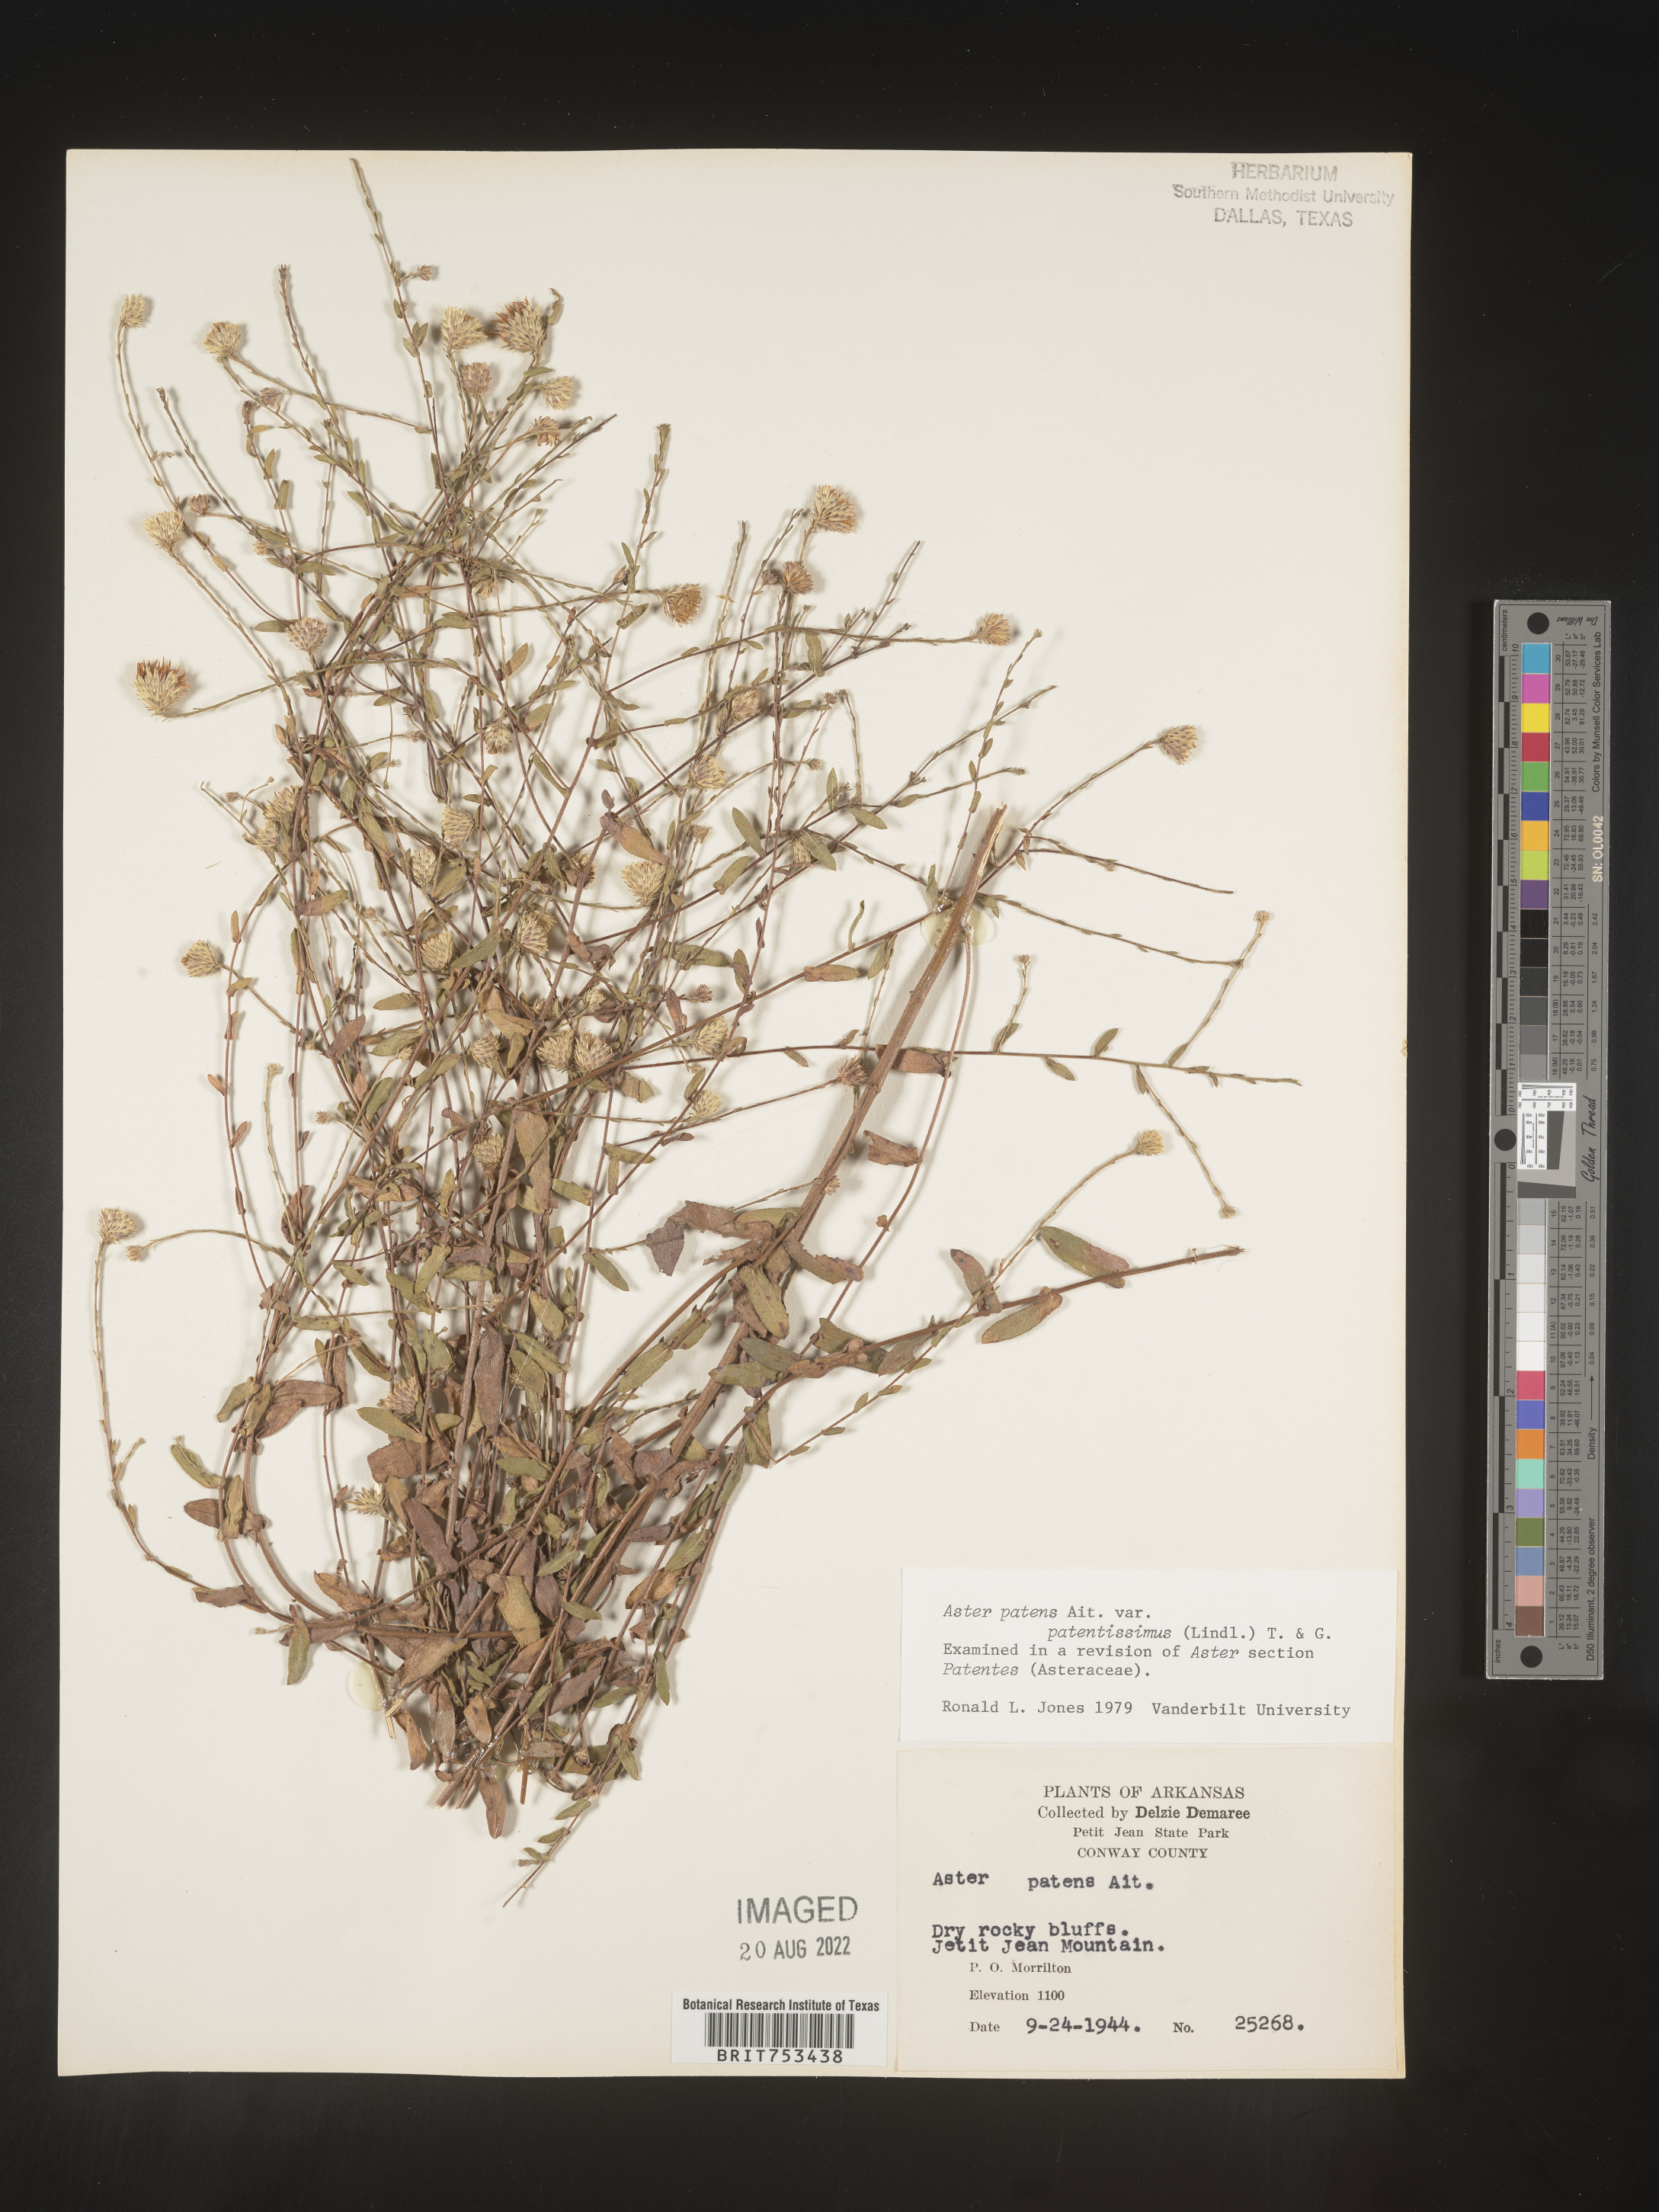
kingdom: Plantae
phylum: Tracheophyta
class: Magnoliopsida
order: Asterales
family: Asteraceae
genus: Symphyotrichum
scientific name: Symphyotrichum patens
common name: Late purple aster
